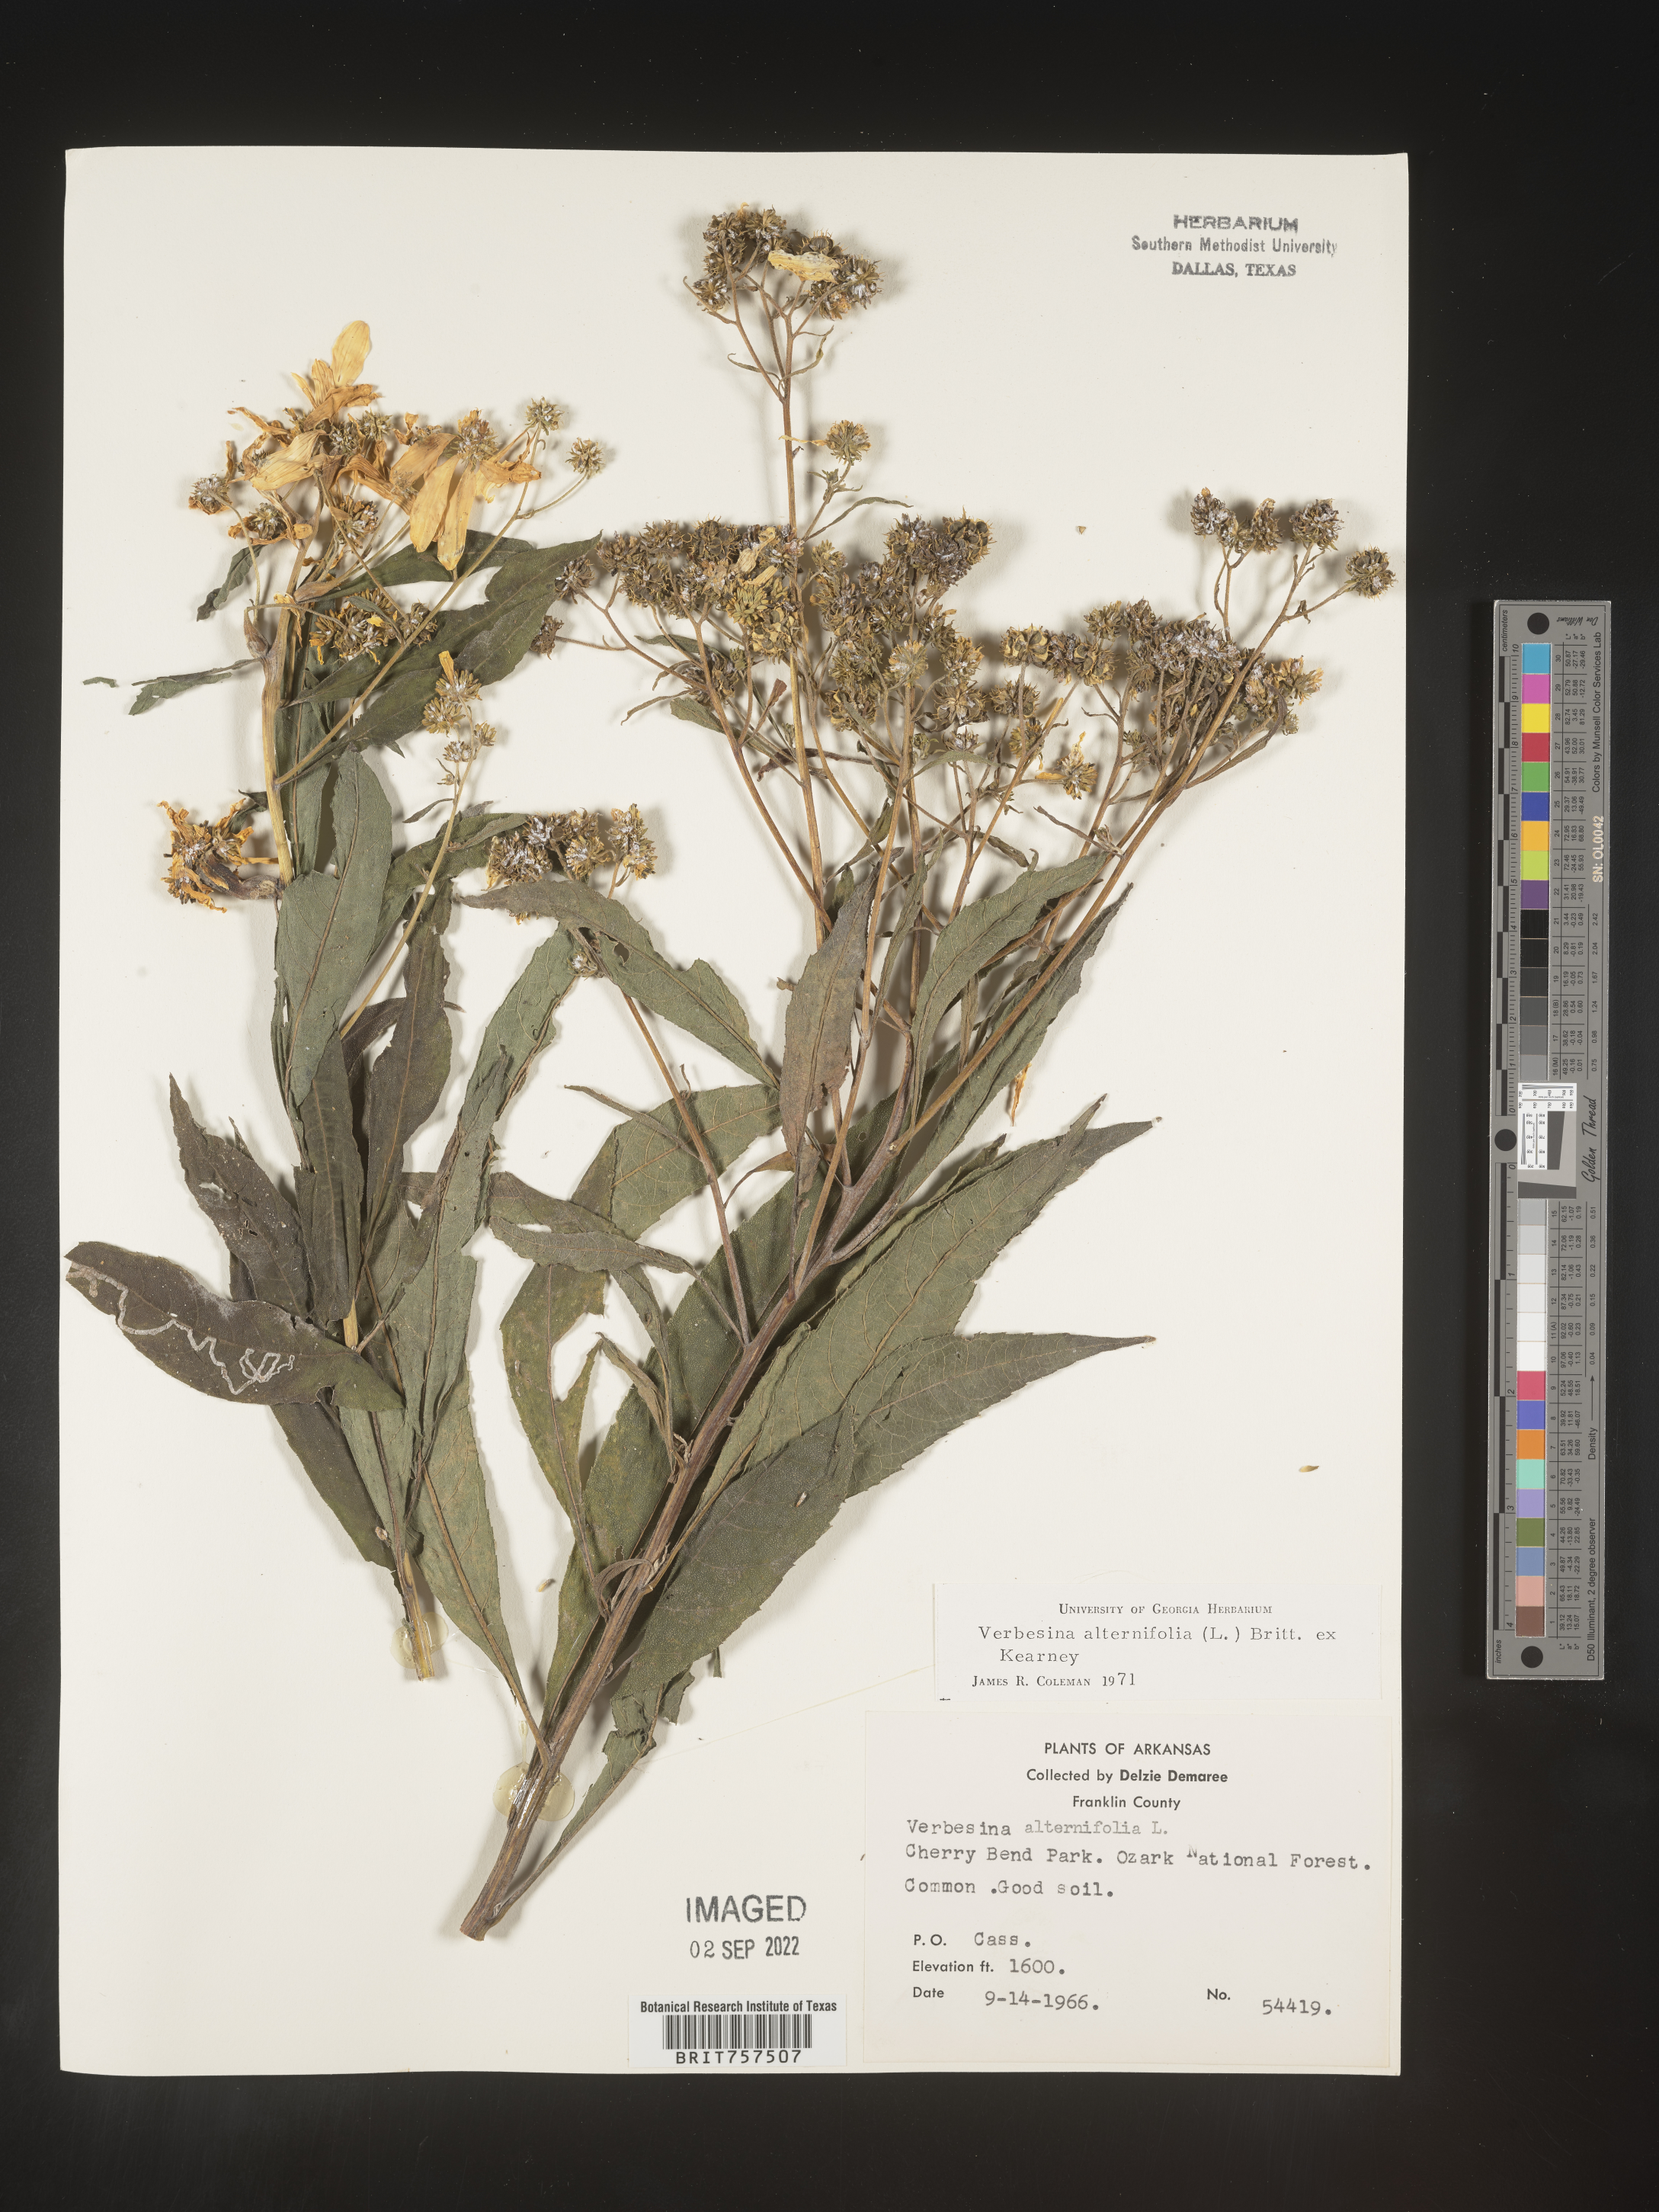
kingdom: Plantae
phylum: Tracheophyta
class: Magnoliopsida
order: Asterales
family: Asteraceae
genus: Verbesina
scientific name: Verbesina alternifolia
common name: Wingstem
